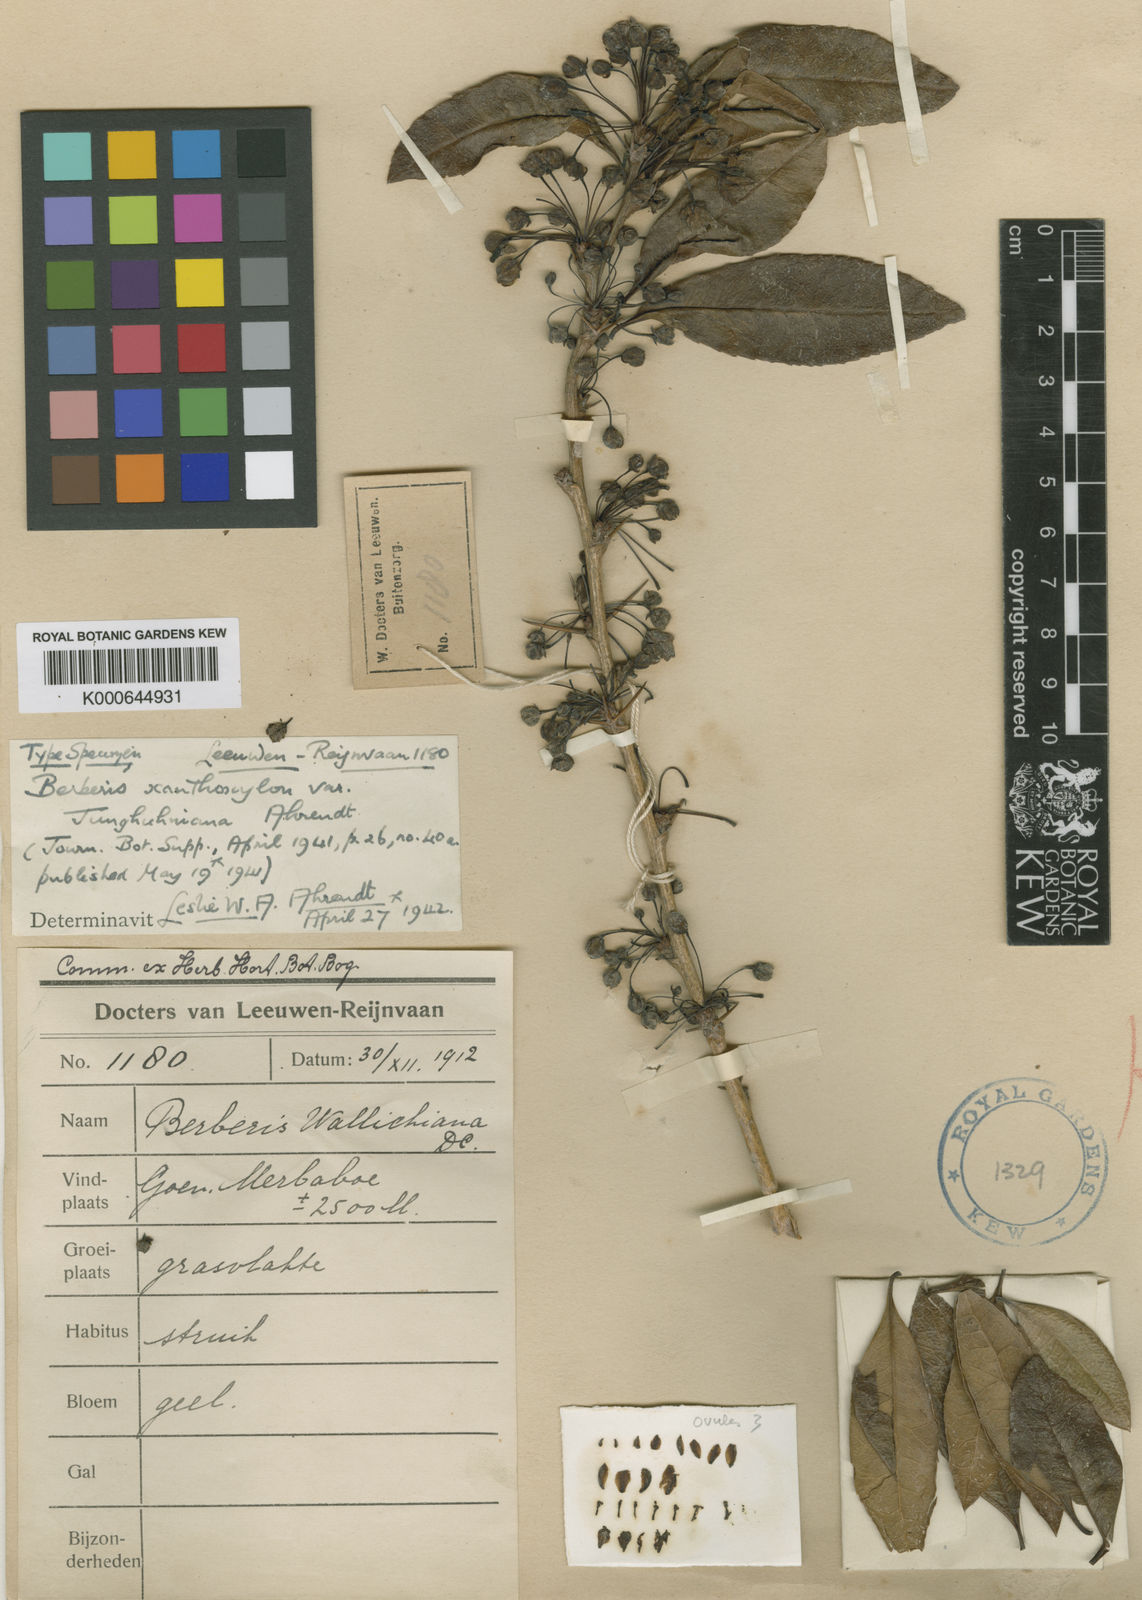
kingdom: Plantae
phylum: Tracheophyta
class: Magnoliopsida
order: Ranunculales
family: Berberidaceae
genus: Berberis
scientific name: Berberis xanthoxylon
